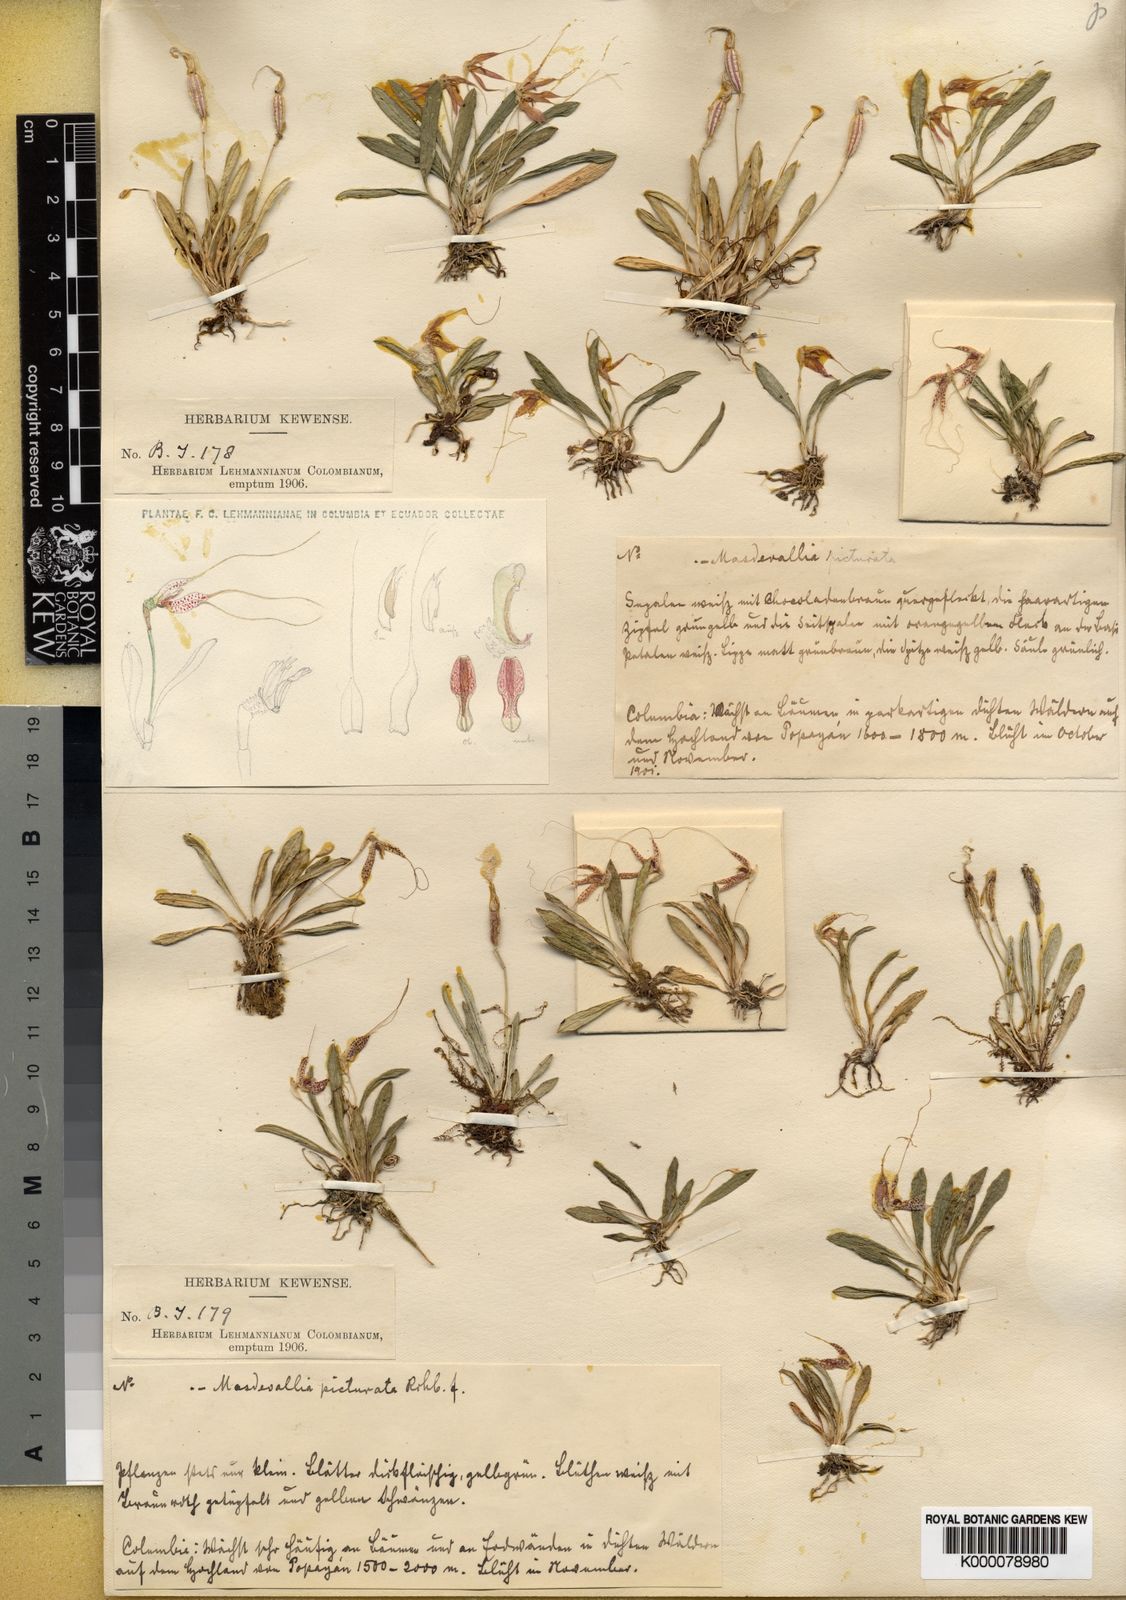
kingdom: Plantae
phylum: Tracheophyta
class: Liliopsida
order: Asparagales
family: Orchidaceae
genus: Masdevallia
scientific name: Masdevallia picturata
